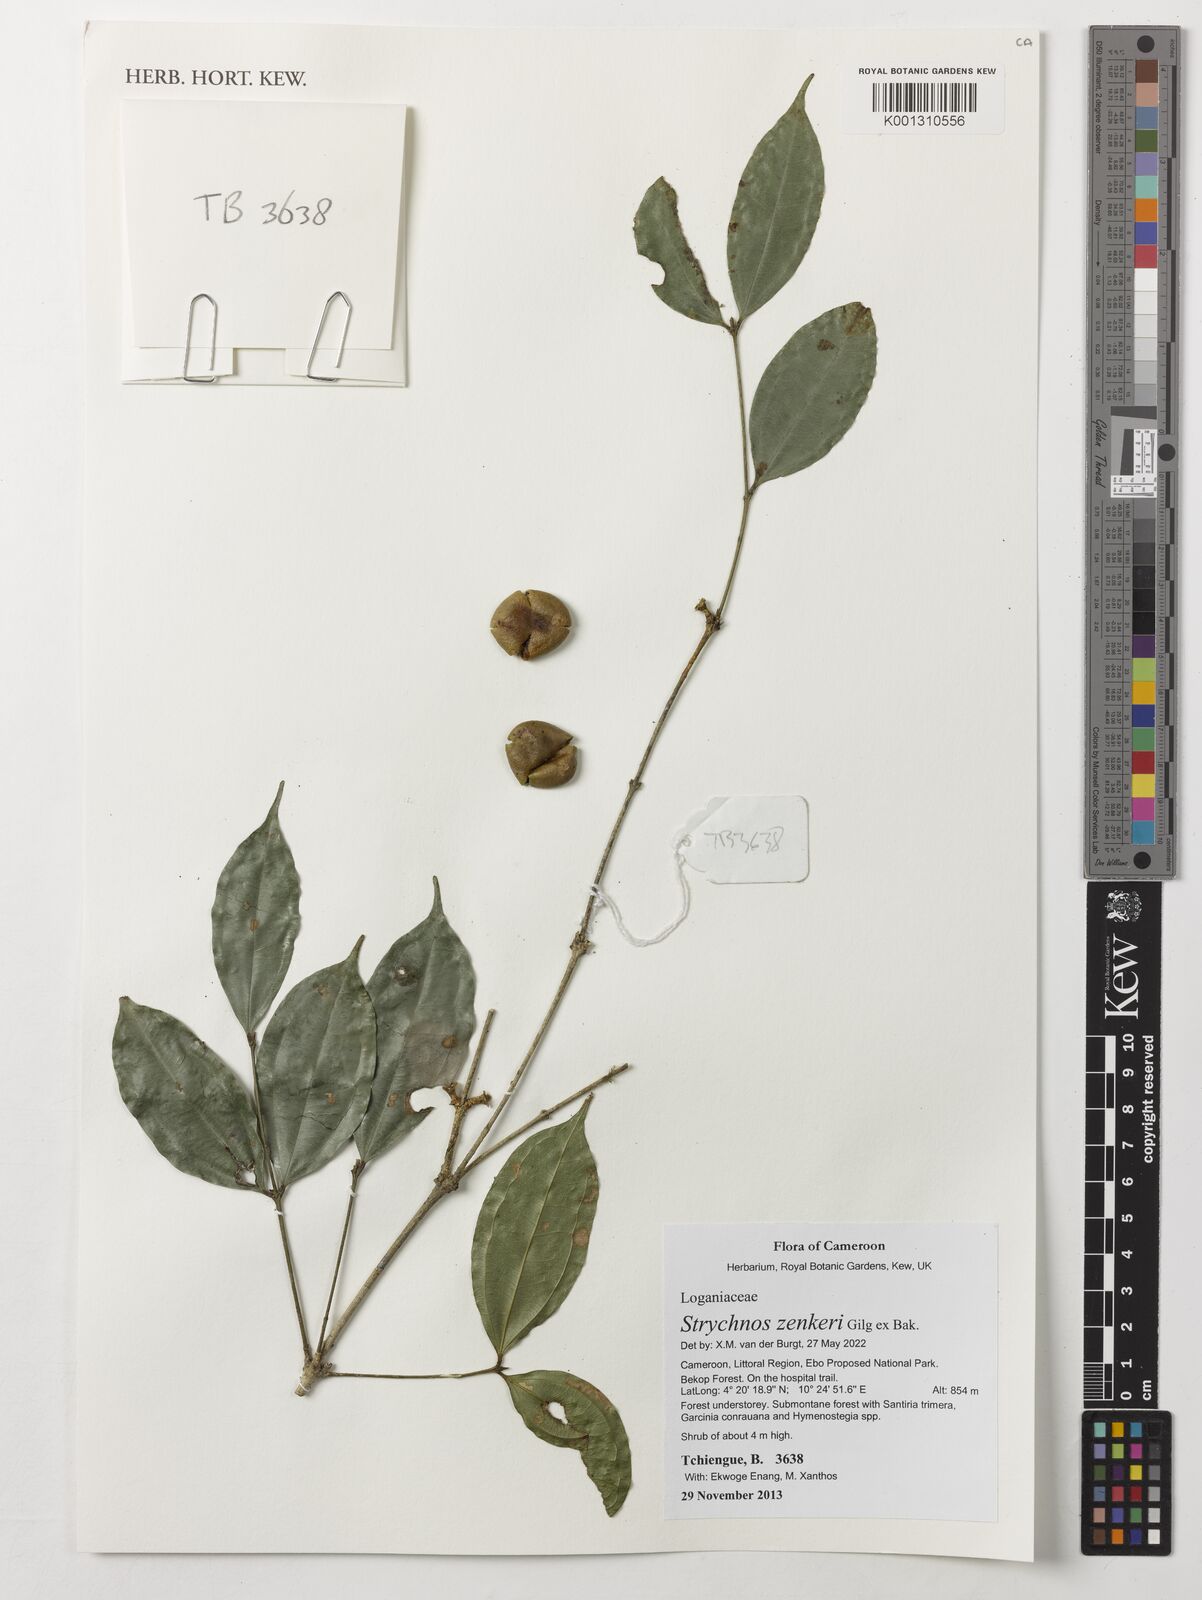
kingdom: Plantae
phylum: Tracheophyta
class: Magnoliopsida
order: Gentianales
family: Loganiaceae
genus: Strychnos
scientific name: Strychnos zenkeri
